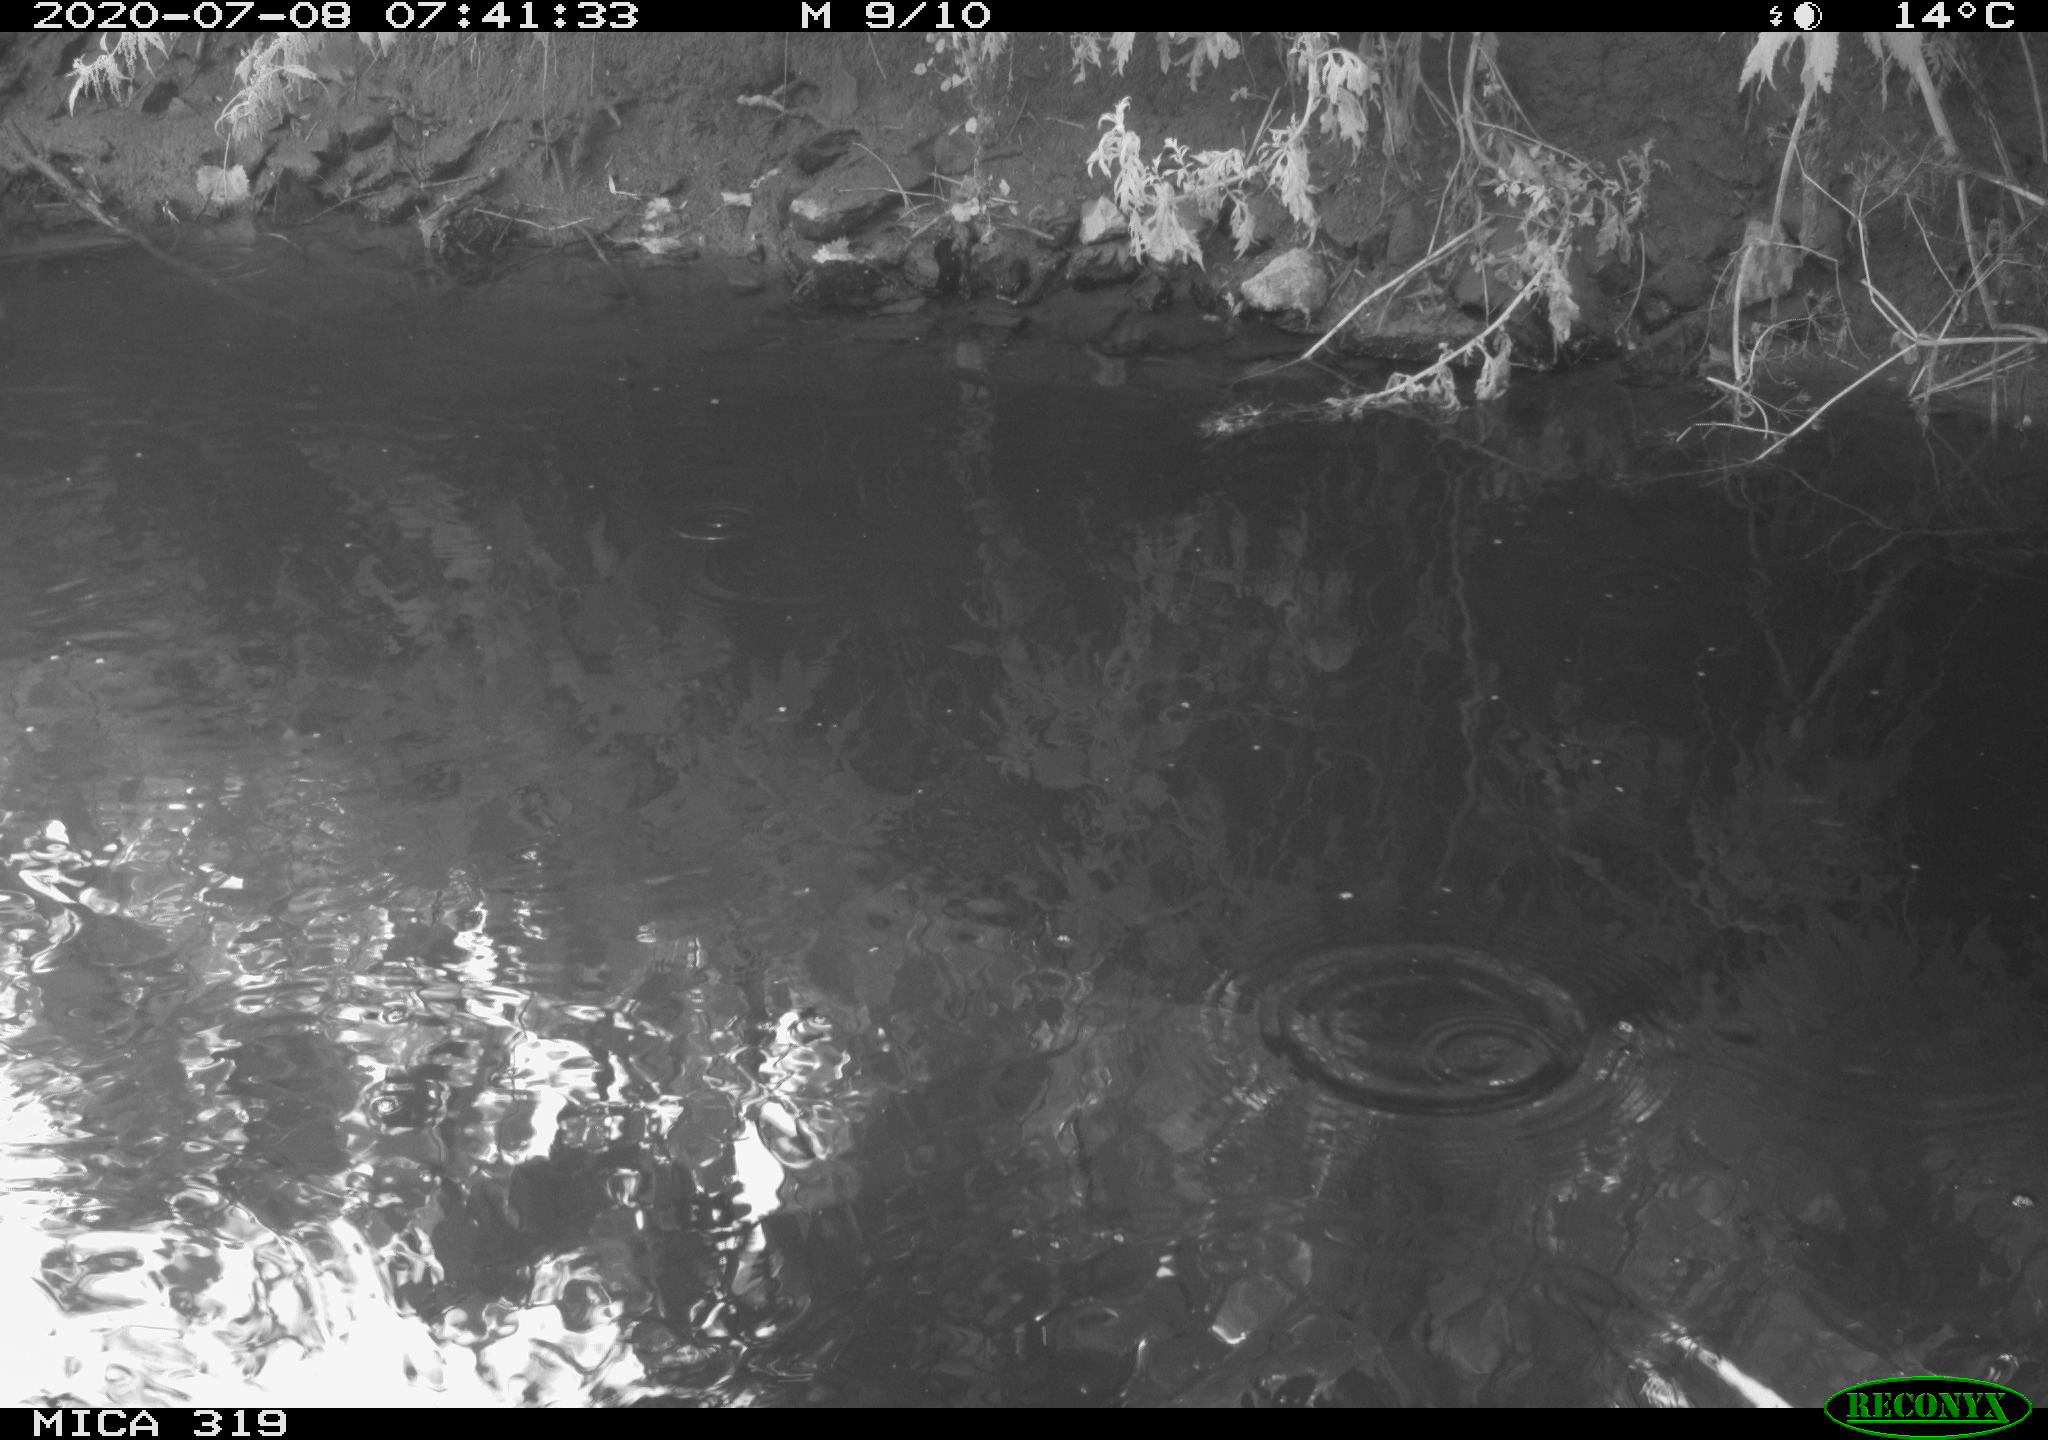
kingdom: Animalia
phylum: Chordata
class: Aves
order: Anseriformes
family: Anatidae
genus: Anas
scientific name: Anas platyrhynchos
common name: Mallard
